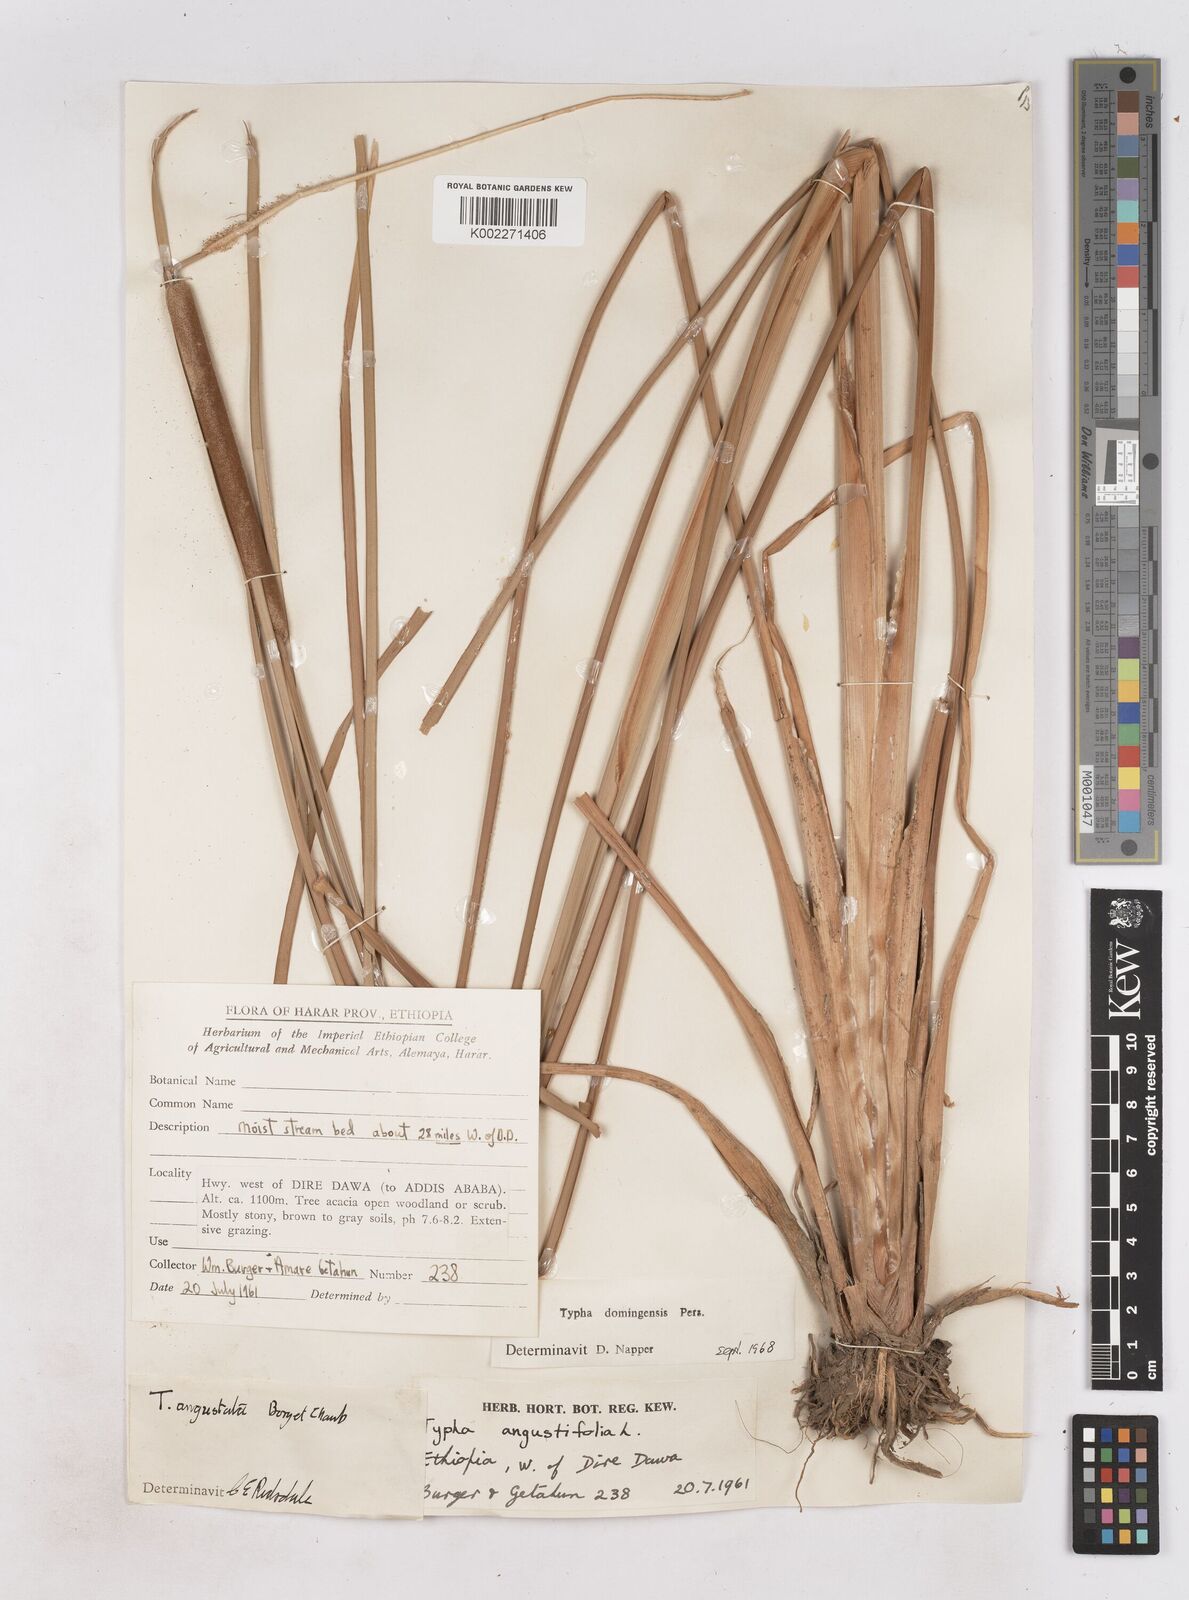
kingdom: Plantae
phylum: Tracheophyta
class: Liliopsida
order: Poales
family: Typhaceae
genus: Typha
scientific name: Typha domingensis
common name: Southern cattail
